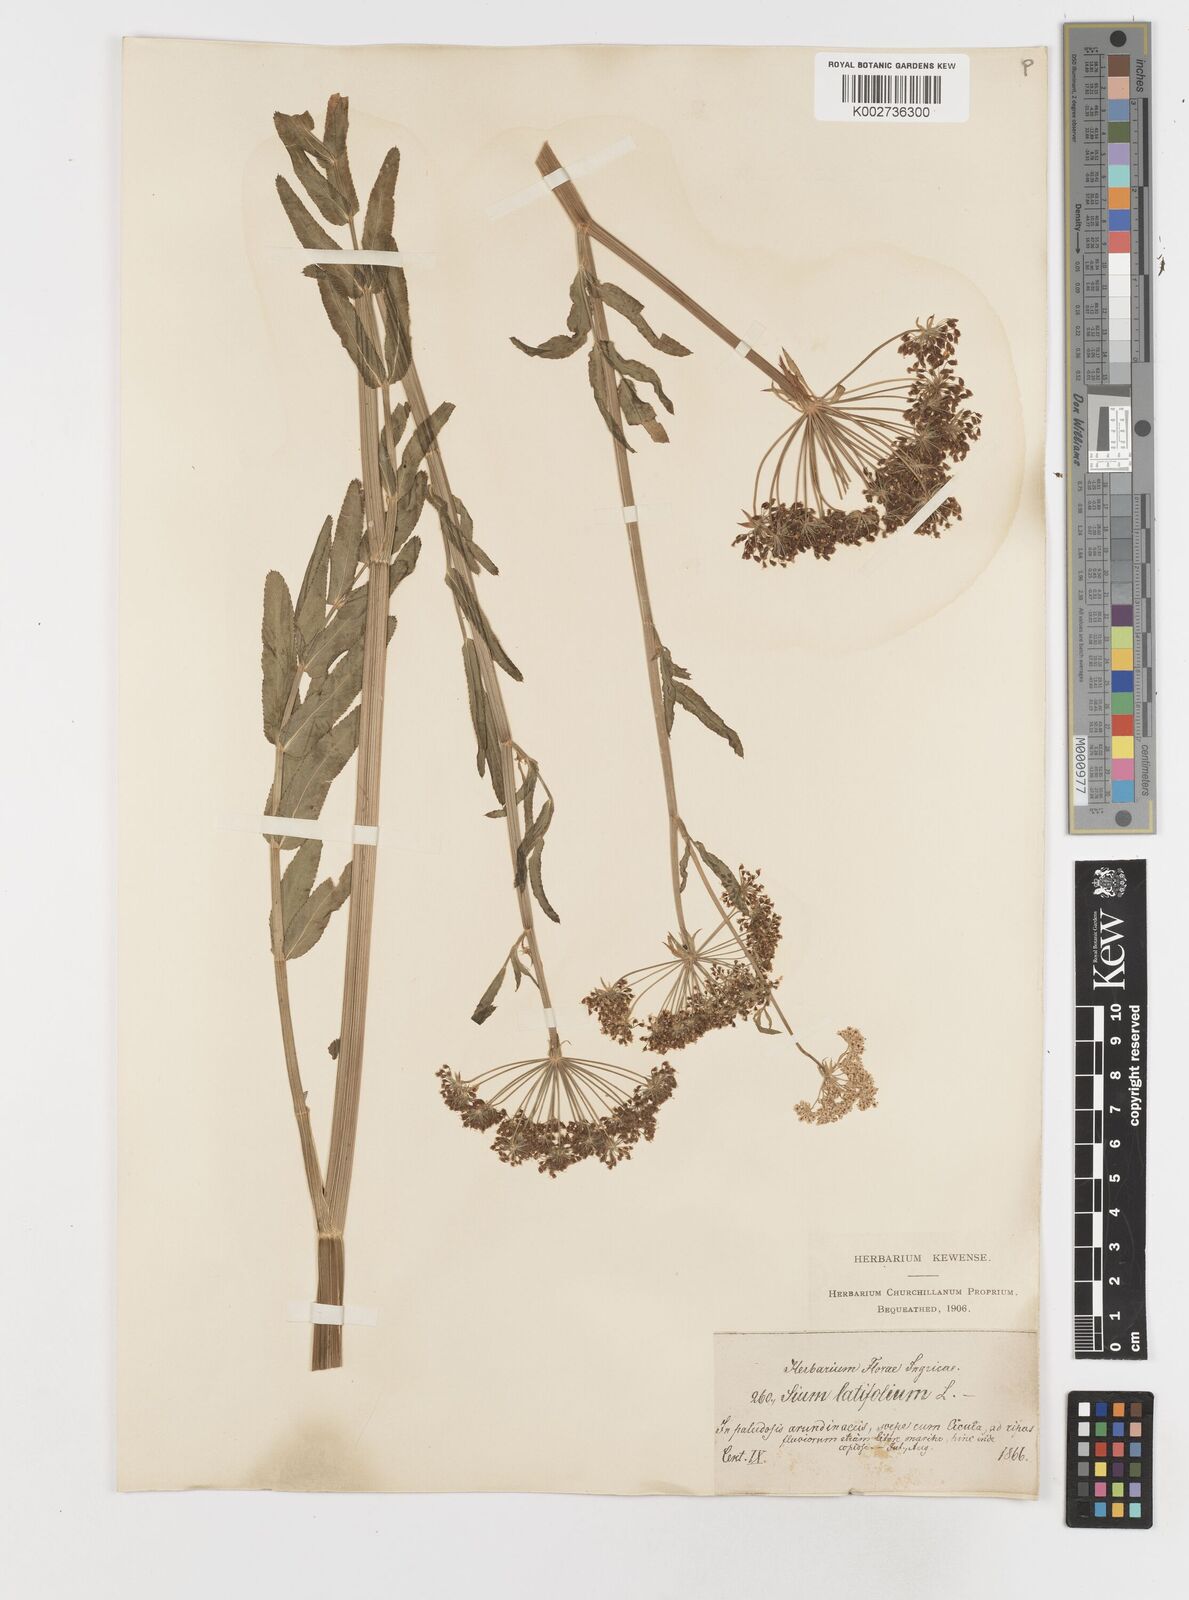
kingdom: Plantae
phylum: Tracheophyta
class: Magnoliopsida
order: Apiales
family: Apiaceae
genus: Sium
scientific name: Sium latifolium
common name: Greater water-parsnip
